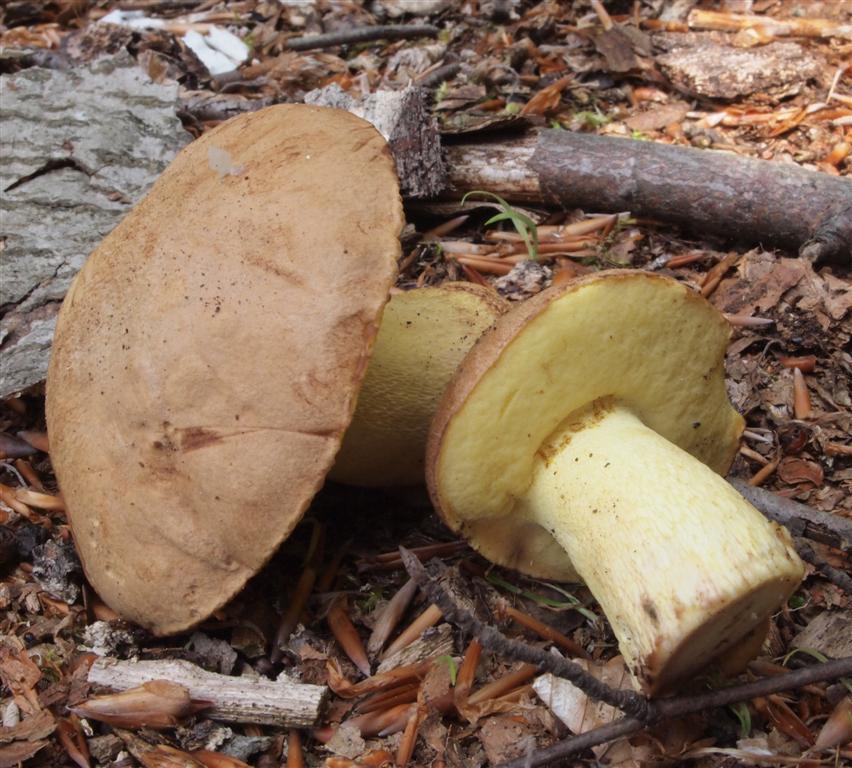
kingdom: Fungi
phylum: Basidiomycota
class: Agaricomycetes
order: Boletales
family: Boletaceae
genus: Butyriboletus
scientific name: Butyriboletus appendiculatus
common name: tenstokket rørhat
